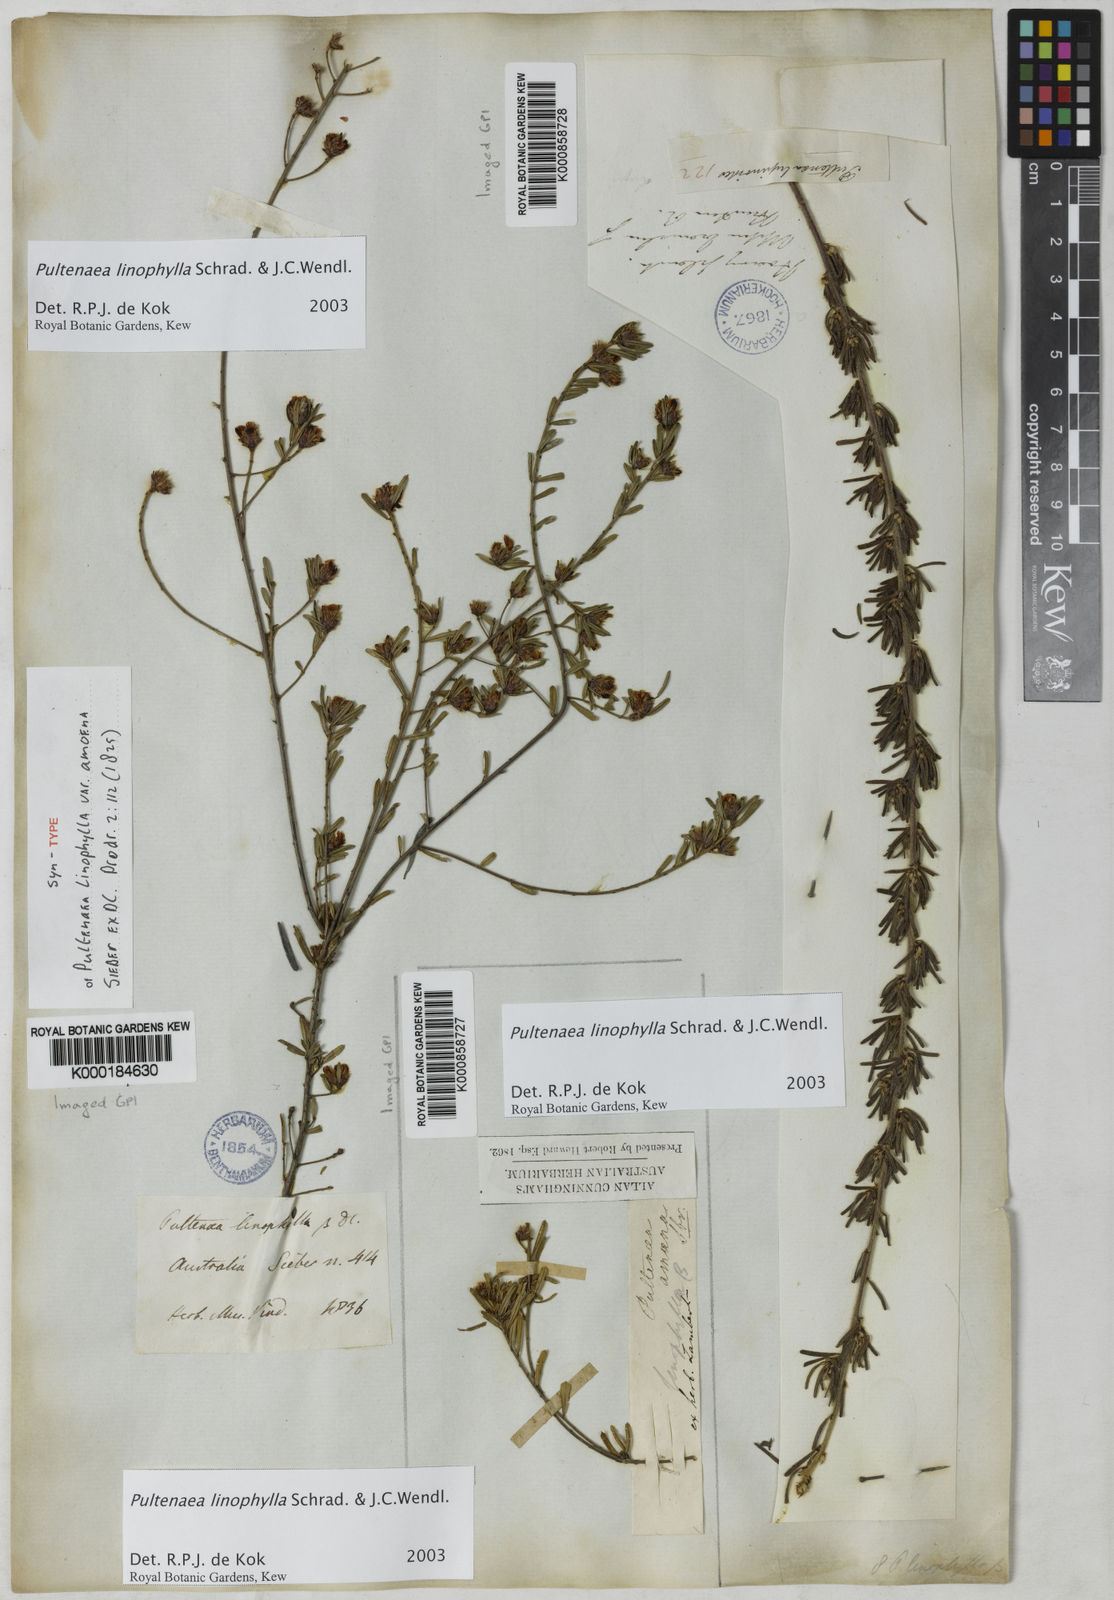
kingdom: Plantae
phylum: Tracheophyta
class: Magnoliopsida
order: Fabales
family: Fabaceae
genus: Pultenaea
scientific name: Pultenaea linophylla
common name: Halo bush-pea
